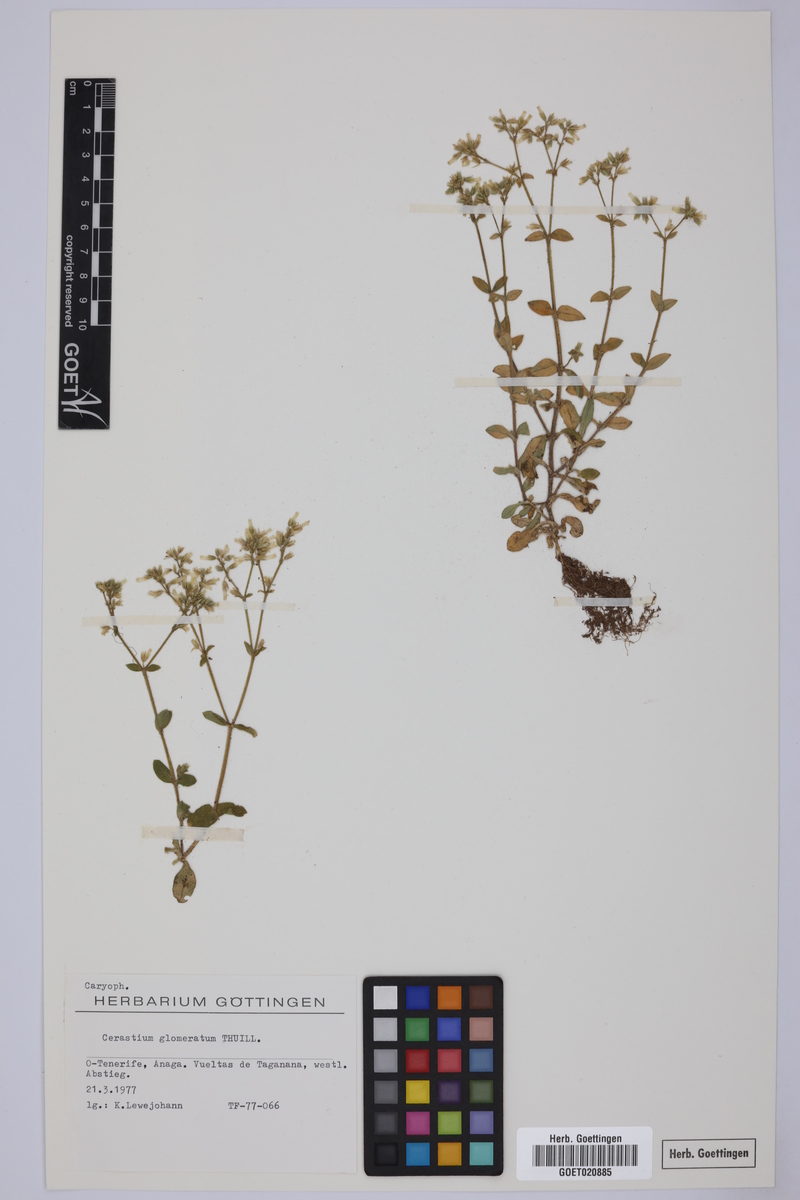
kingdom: Plantae
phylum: Tracheophyta
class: Magnoliopsida
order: Caryophyllales
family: Caryophyllaceae
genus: Cerastium
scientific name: Cerastium glomeratum
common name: Sticky chickweed
